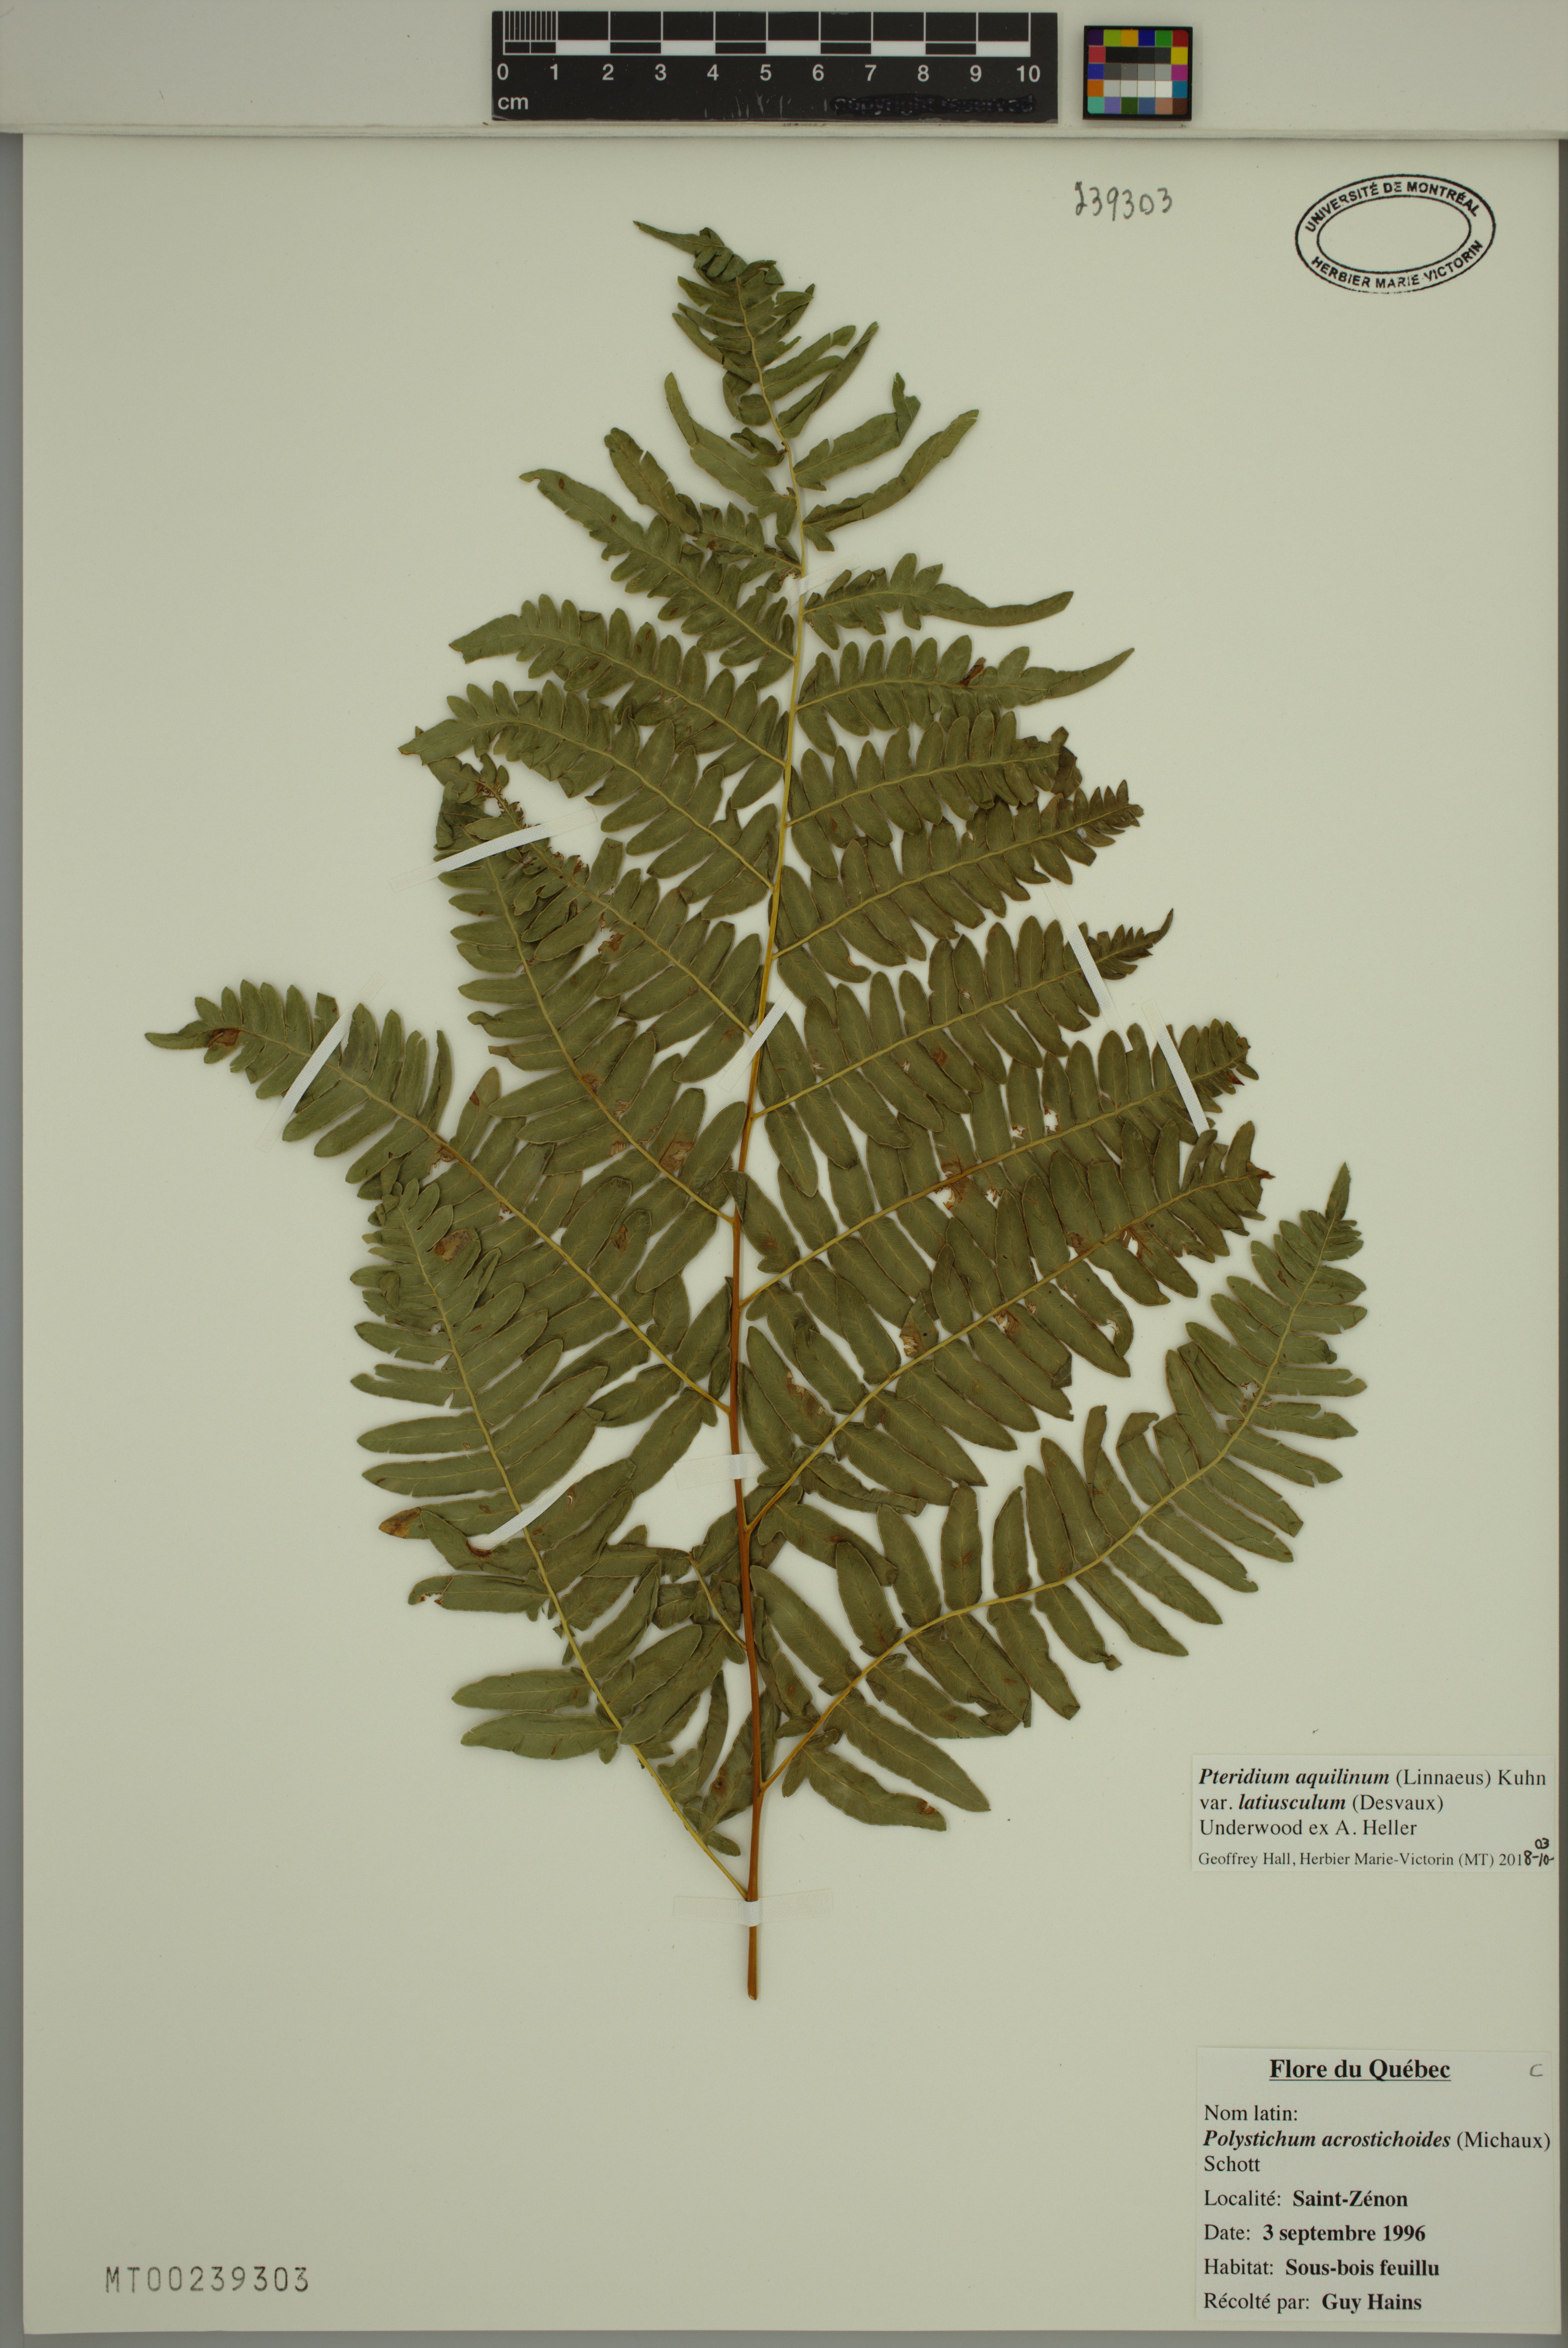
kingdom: Plantae
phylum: Tracheophyta
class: Polypodiopsida
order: Polypodiales
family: Dennstaedtiaceae
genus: Pteridium
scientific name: Pteridium aquilinum
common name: Bracken
